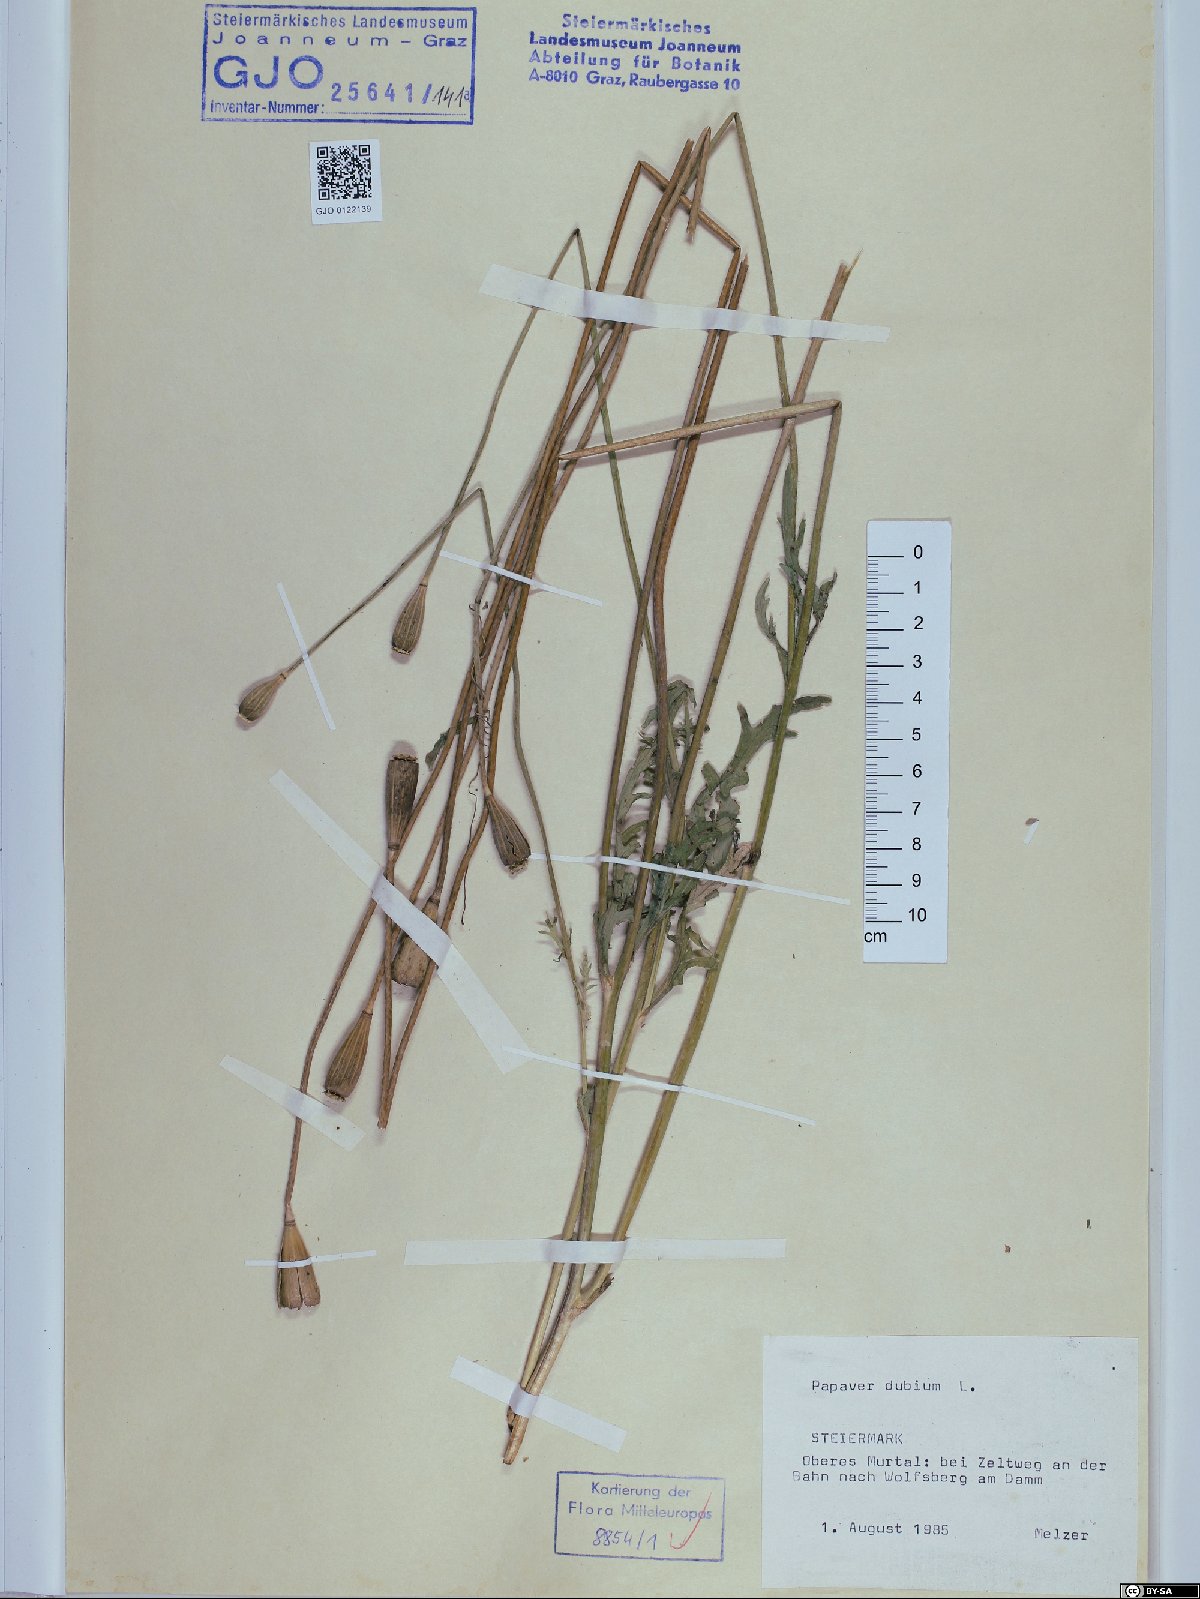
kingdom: Plantae
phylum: Tracheophyta
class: Magnoliopsida
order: Ranunculales
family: Papaveraceae
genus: Papaver
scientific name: Papaver dubium
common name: Long-headed poppy
